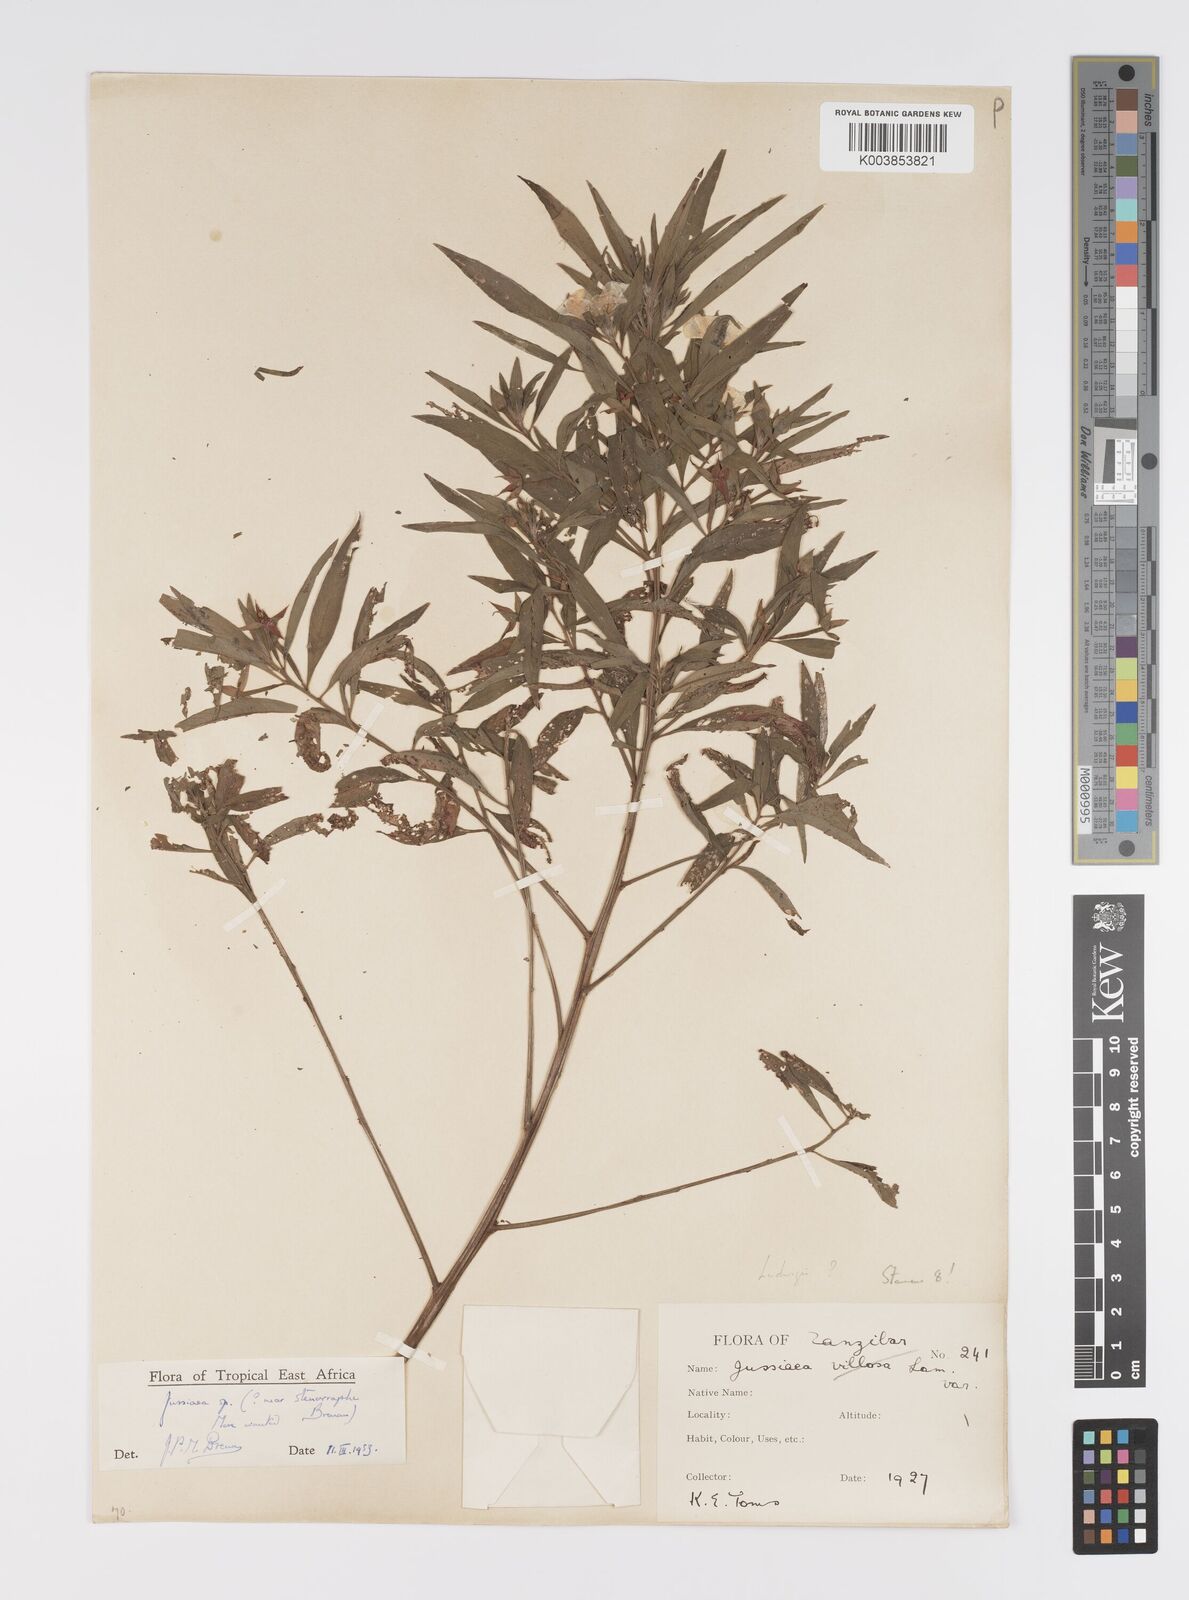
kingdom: Plantae
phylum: Tracheophyta
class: Magnoliopsida
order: Myrtales
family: Onagraceae
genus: Ludwigia
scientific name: Ludwigia
